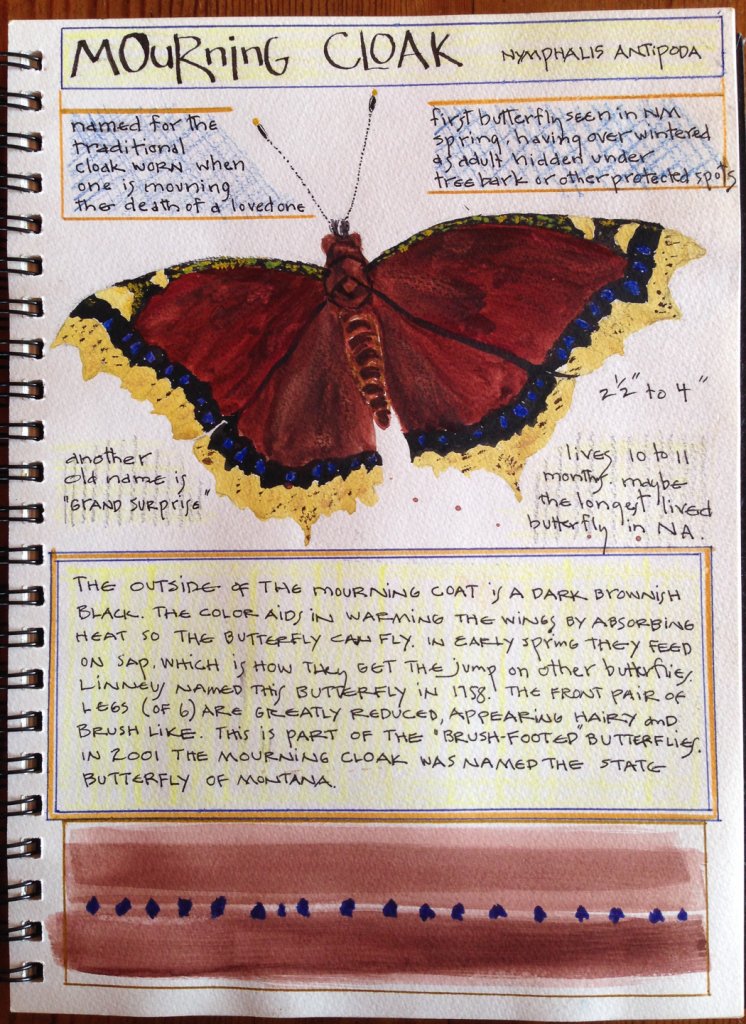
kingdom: Animalia
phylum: Arthropoda
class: Insecta
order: Lepidoptera
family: Nymphalidae
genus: Nymphalis
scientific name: Nymphalis antiopa
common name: Mourning Cloak
